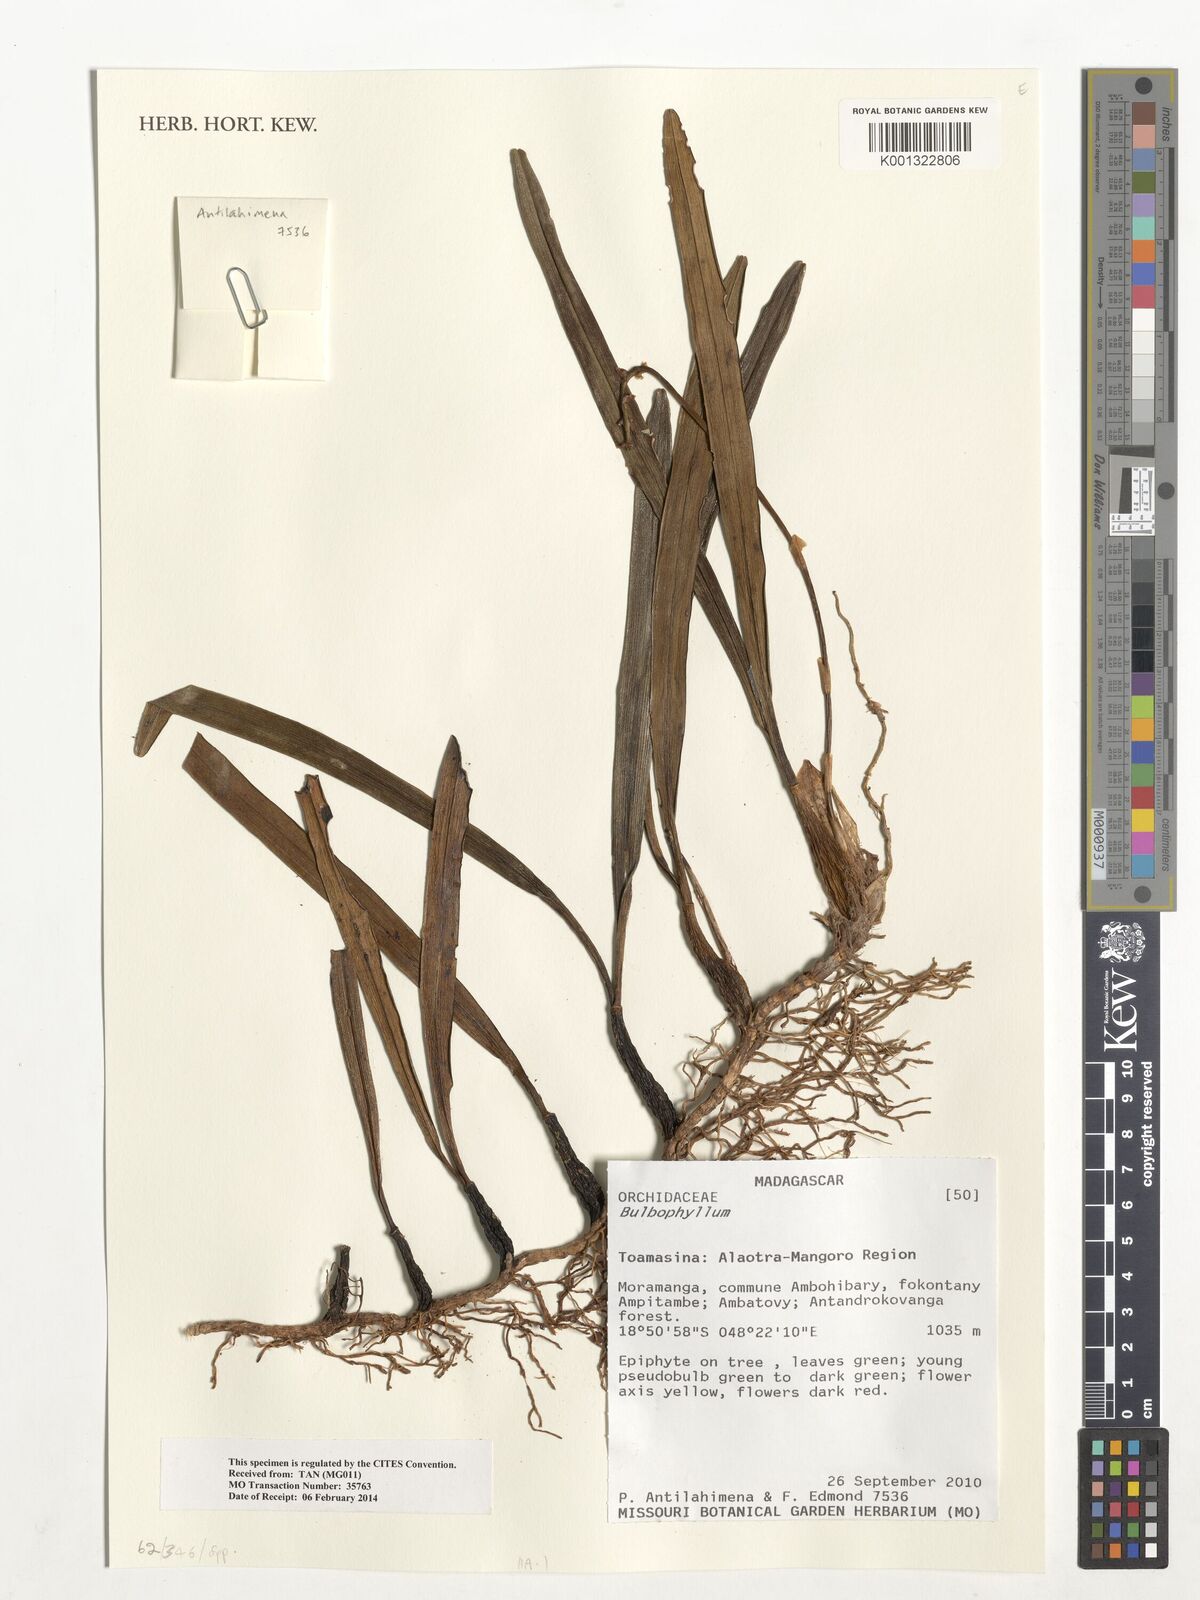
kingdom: Plantae
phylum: Tracheophyta
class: Liliopsida
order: Asparagales
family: Orchidaceae
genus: Bulbophyllum
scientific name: Bulbophyllum
